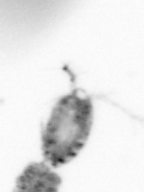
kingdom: Animalia
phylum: Arthropoda
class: Copepoda
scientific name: Copepoda
